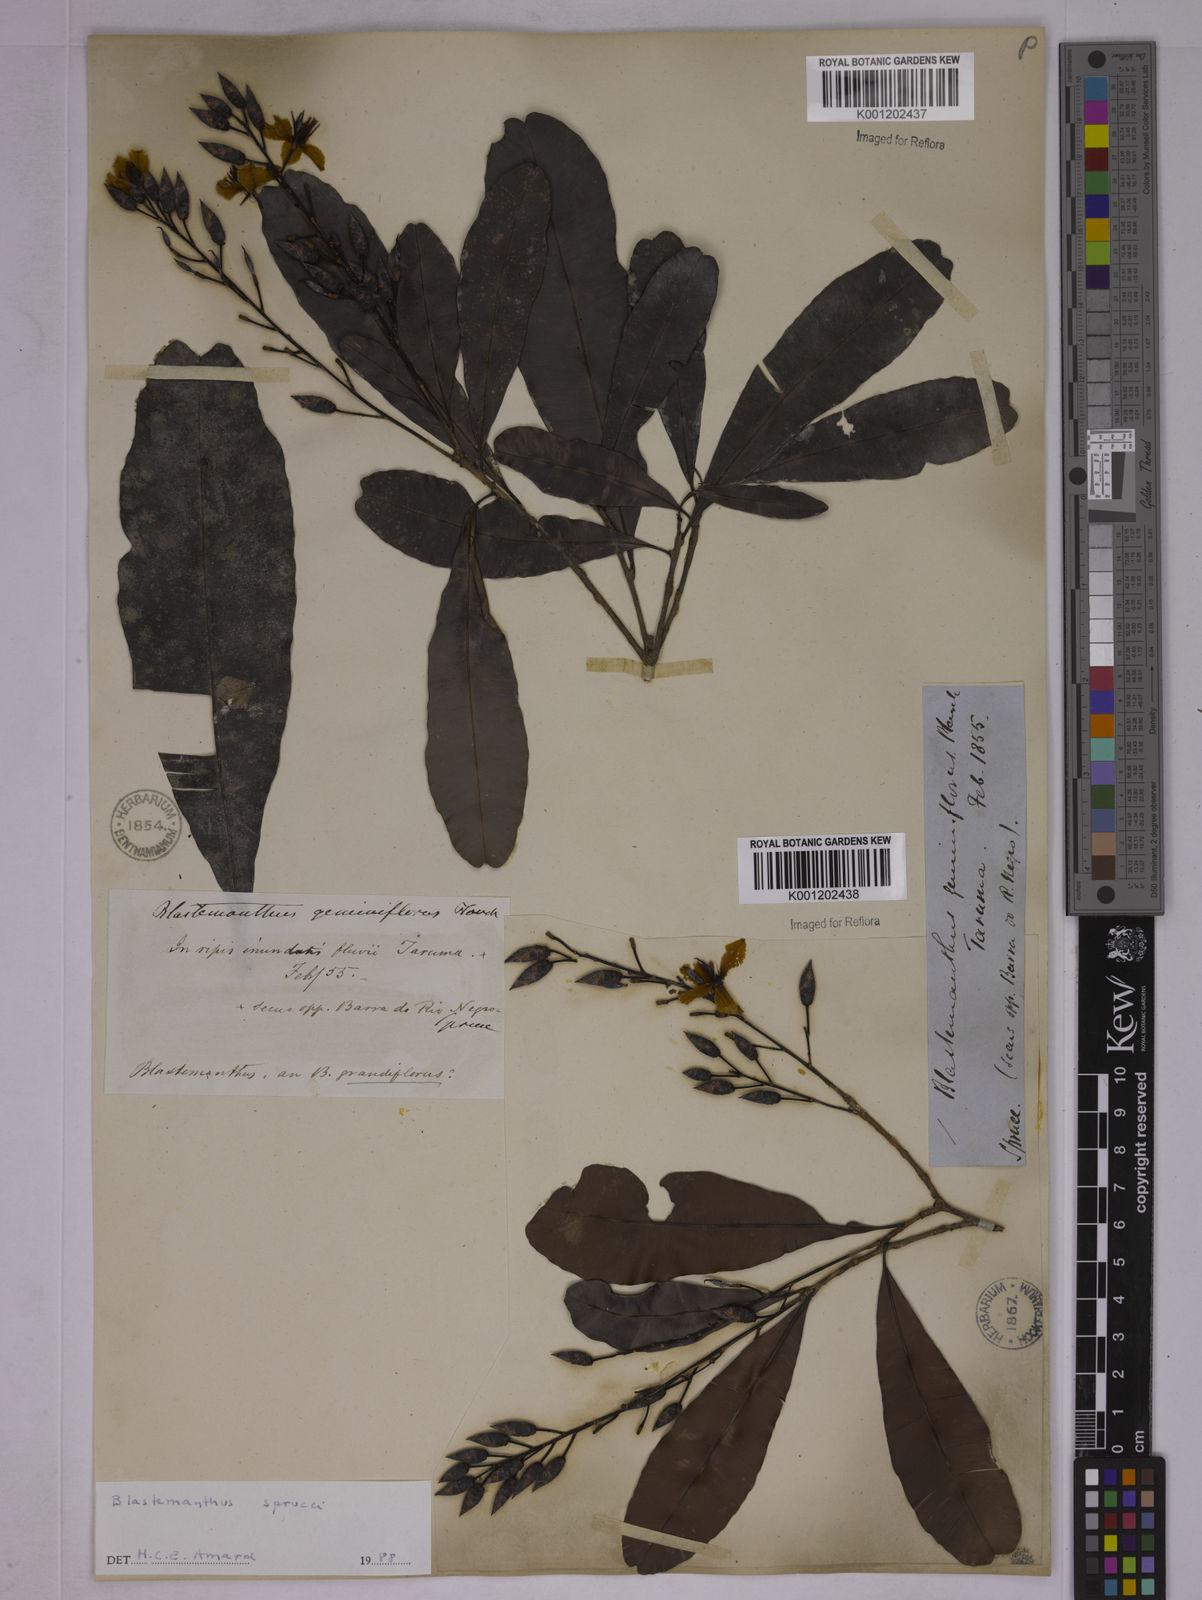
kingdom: Plantae
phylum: Tracheophyta
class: Magnoliopsida
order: Malpighiales
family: Ochnaceae
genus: Blastemanthus
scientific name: Blastemanthus gemmiflorus
